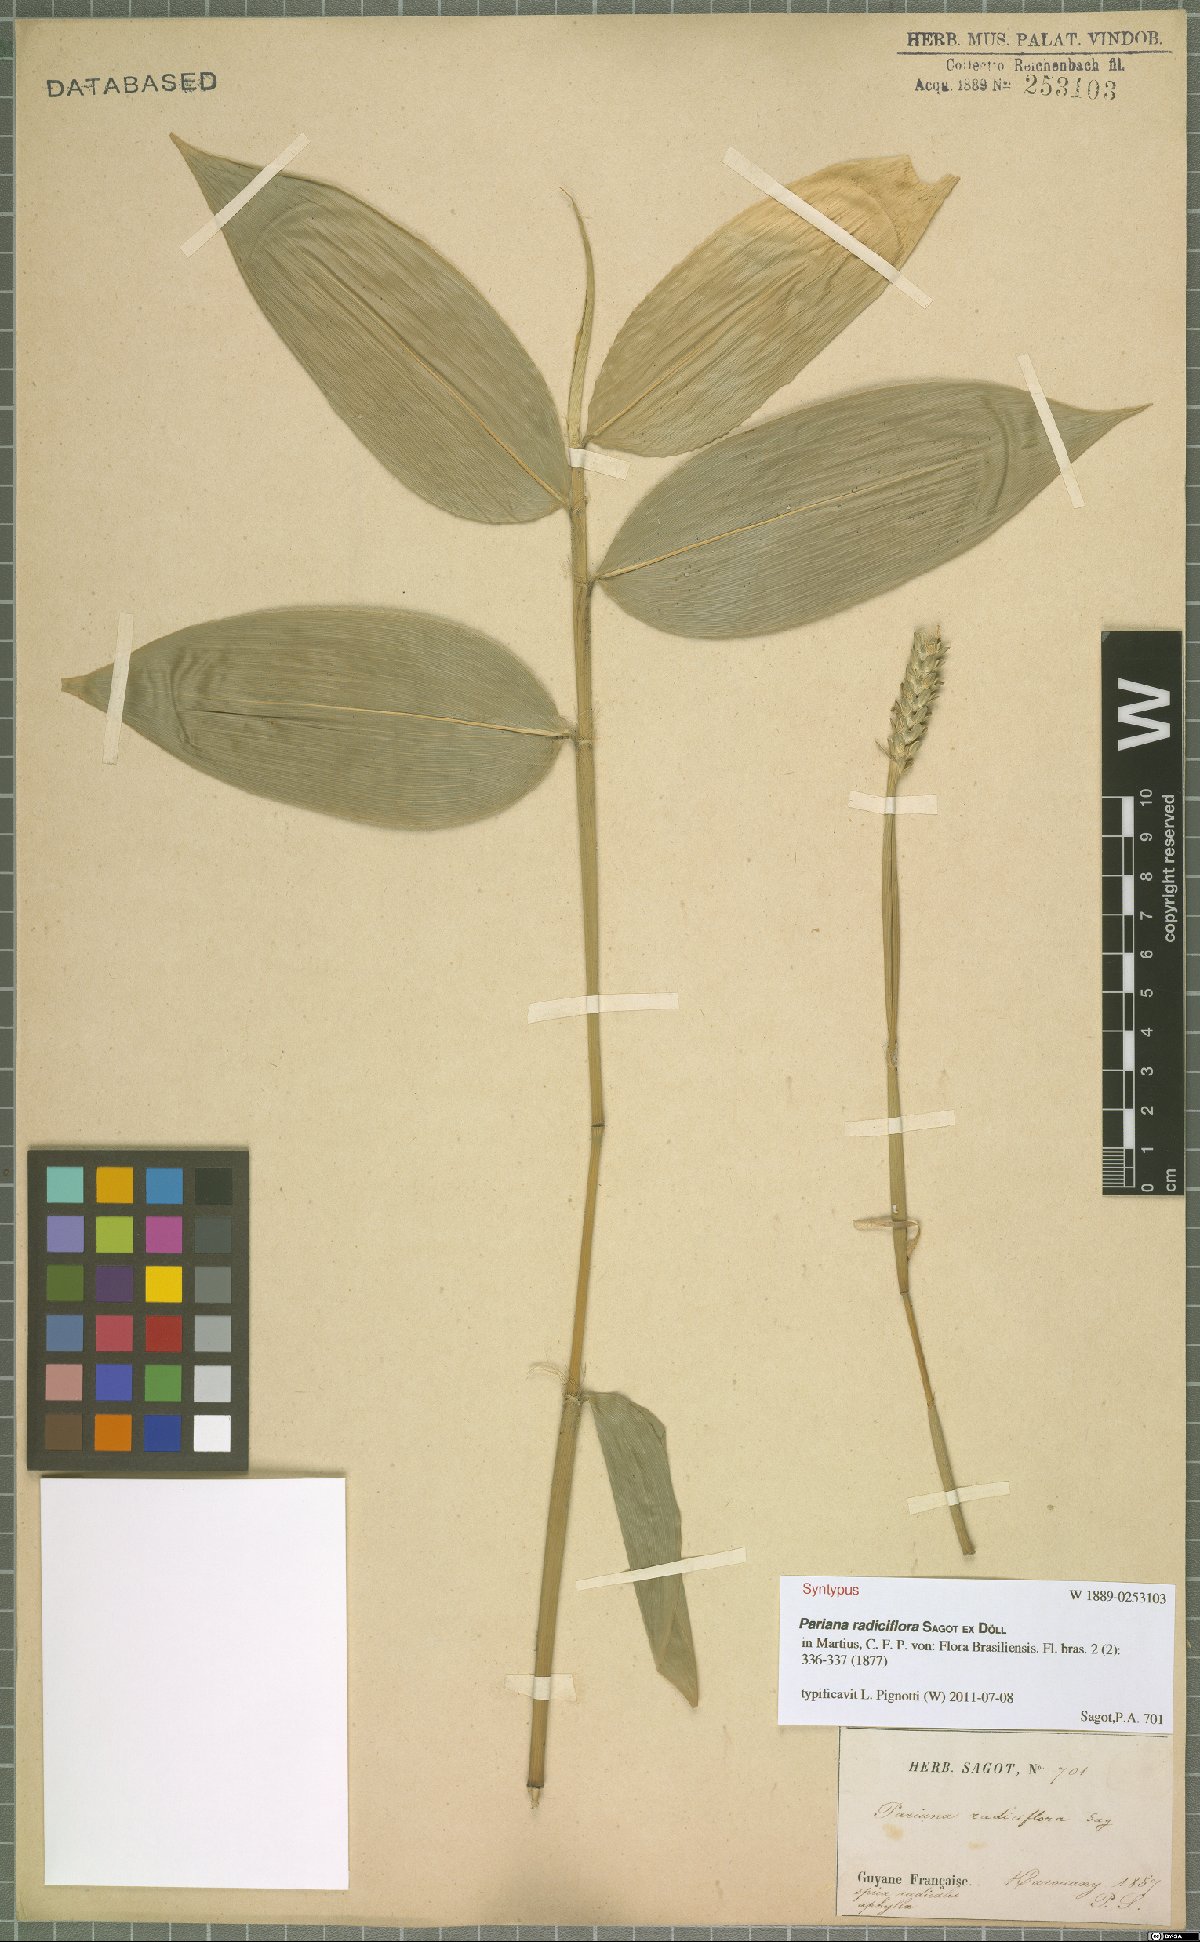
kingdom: Plantae
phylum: Tracheophyta
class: Liliopsida
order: Poales
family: Poaceae
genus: Pariana
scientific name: Pariana radiciflora
